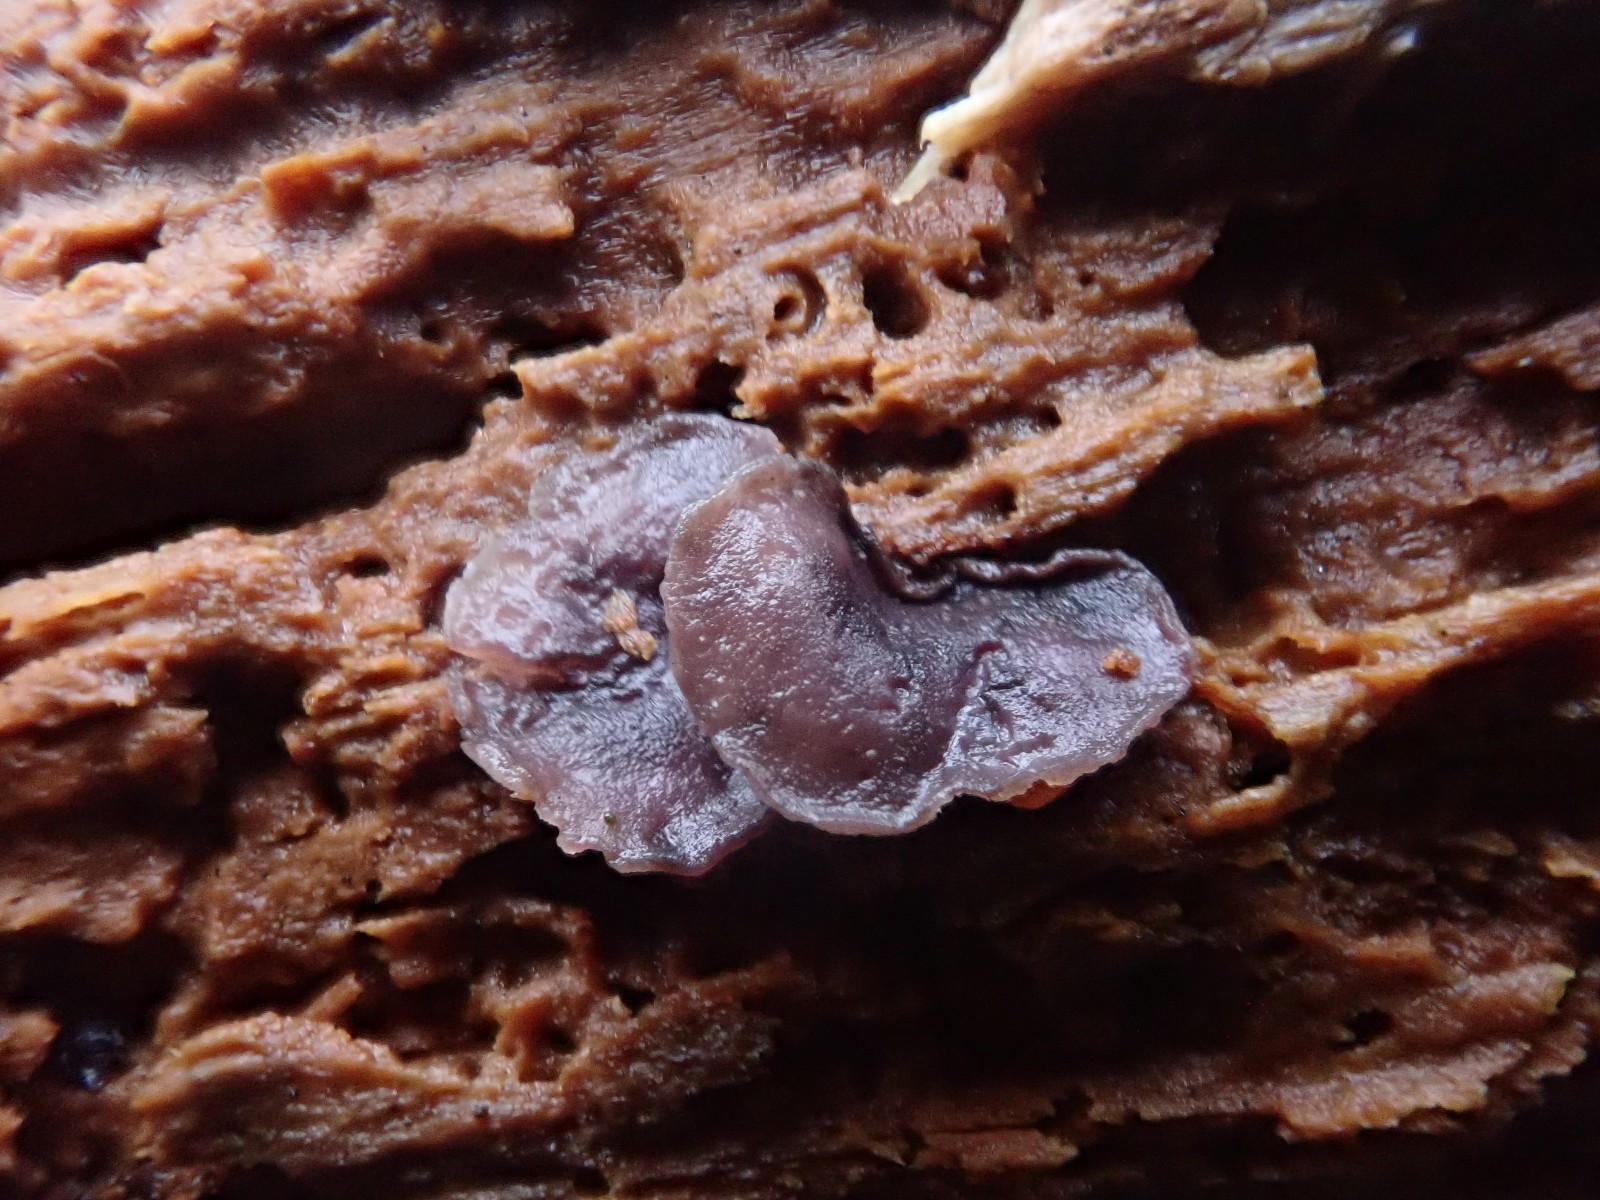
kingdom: Fungi
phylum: Ascomycota
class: Leotiomycetes
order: Helotiales
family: Gelatinodiscaceae
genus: Ascocoryne
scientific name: Ascocoryne cylichnium
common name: stor sejskive
